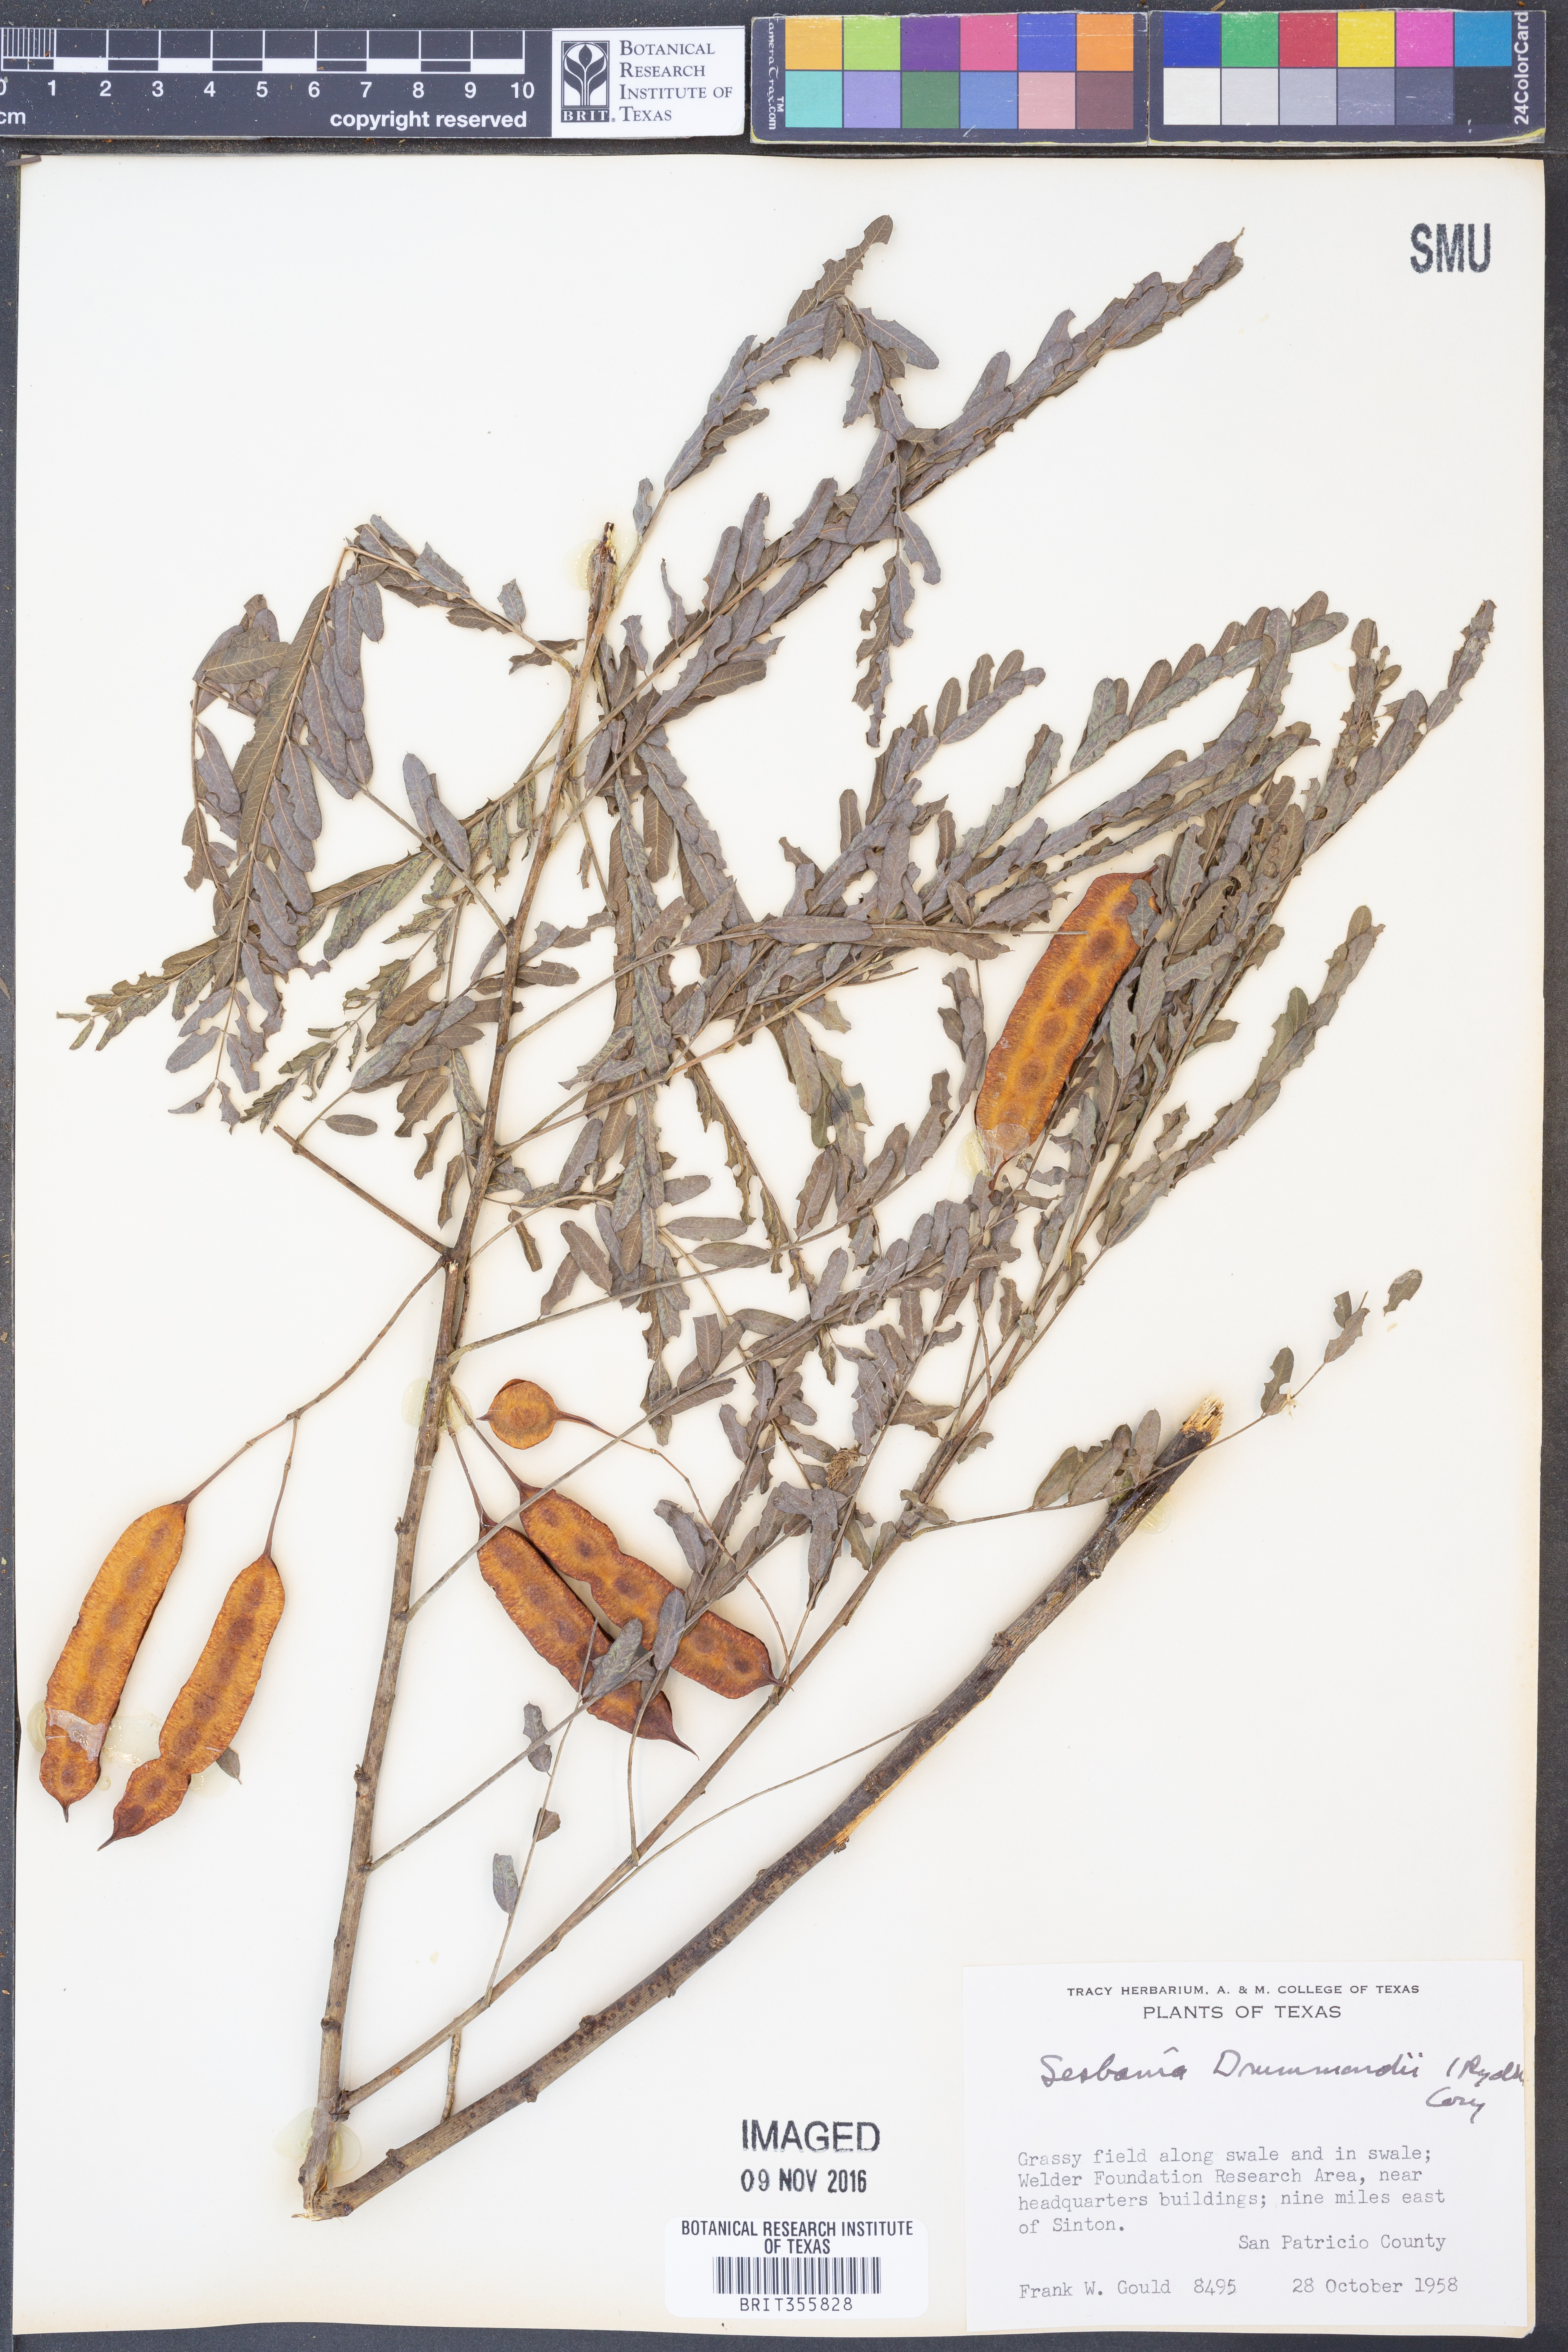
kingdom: Plantae
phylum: Tracheophyta
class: Magnoliopsida
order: Fabales
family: Fabaceae
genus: Sesbania
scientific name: Sesbania drummondii
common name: Poison-bean
